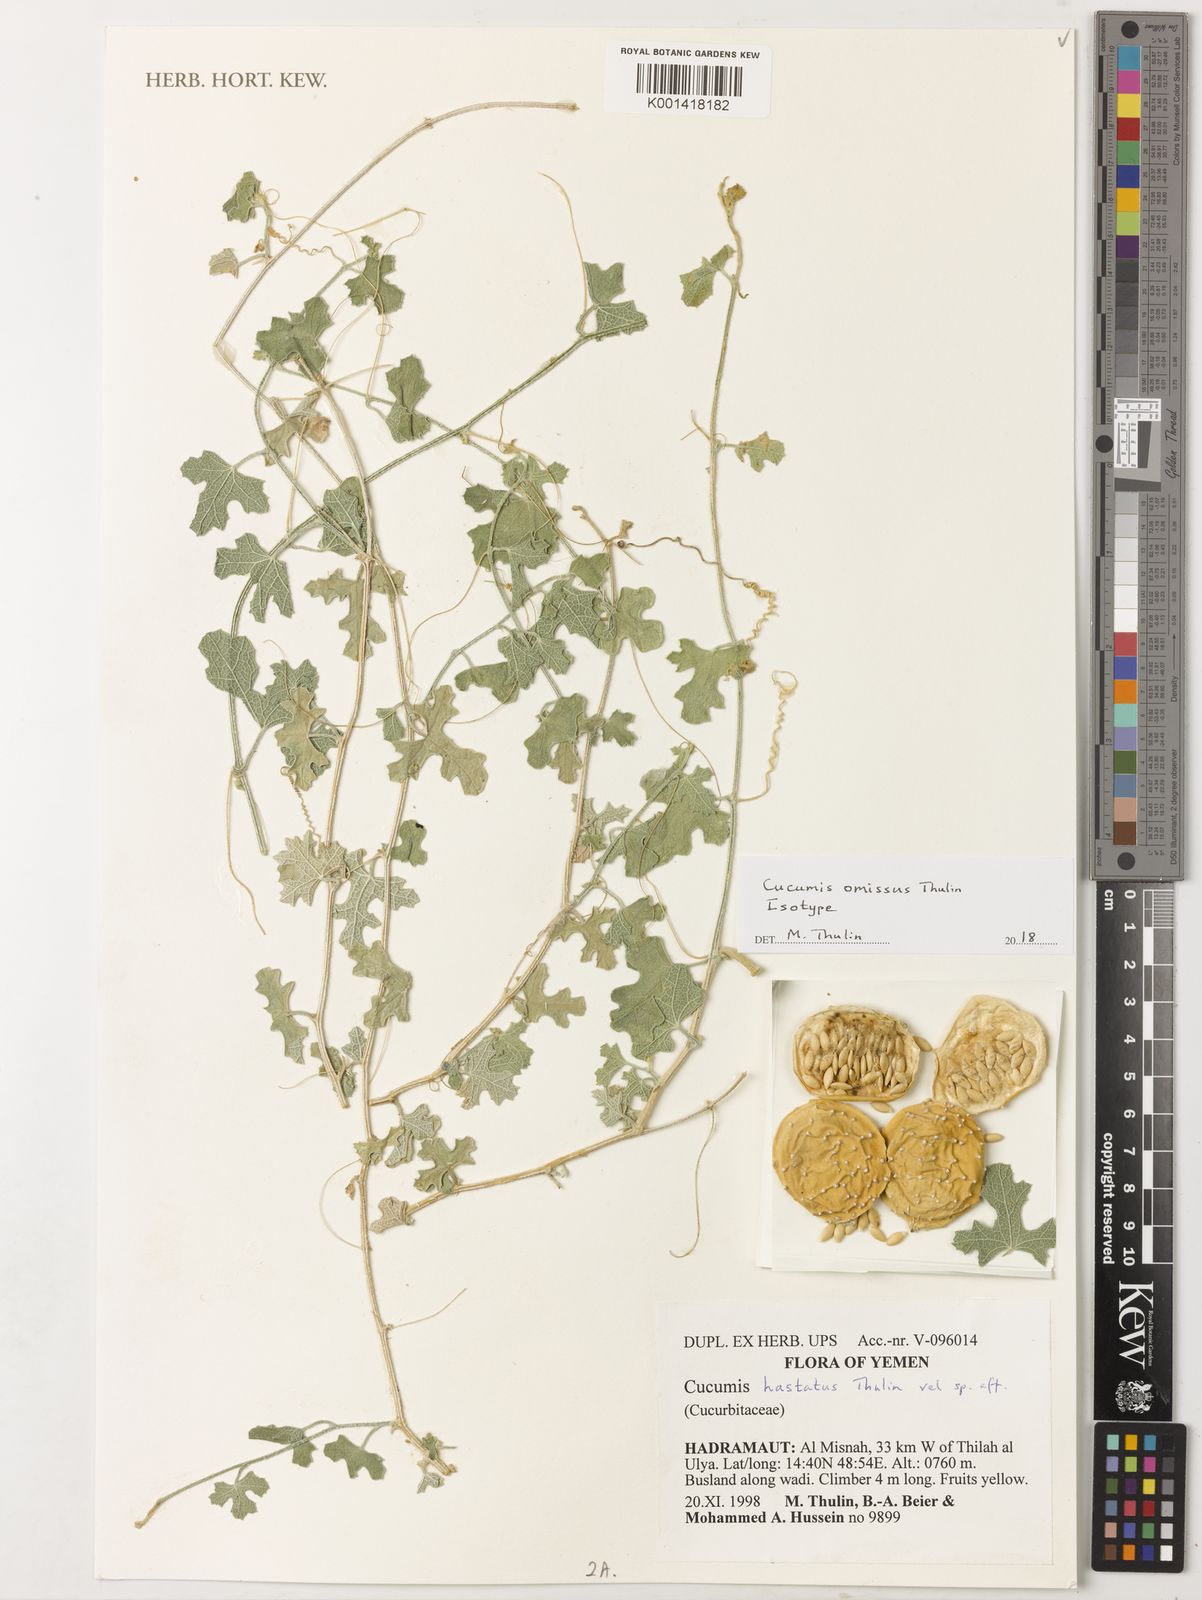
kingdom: Plantae
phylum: Tracheophyta
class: Magnoliopsida
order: Cucurbitales
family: Cucurbitaceae
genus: Cucumis
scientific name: Cucumis omissus
